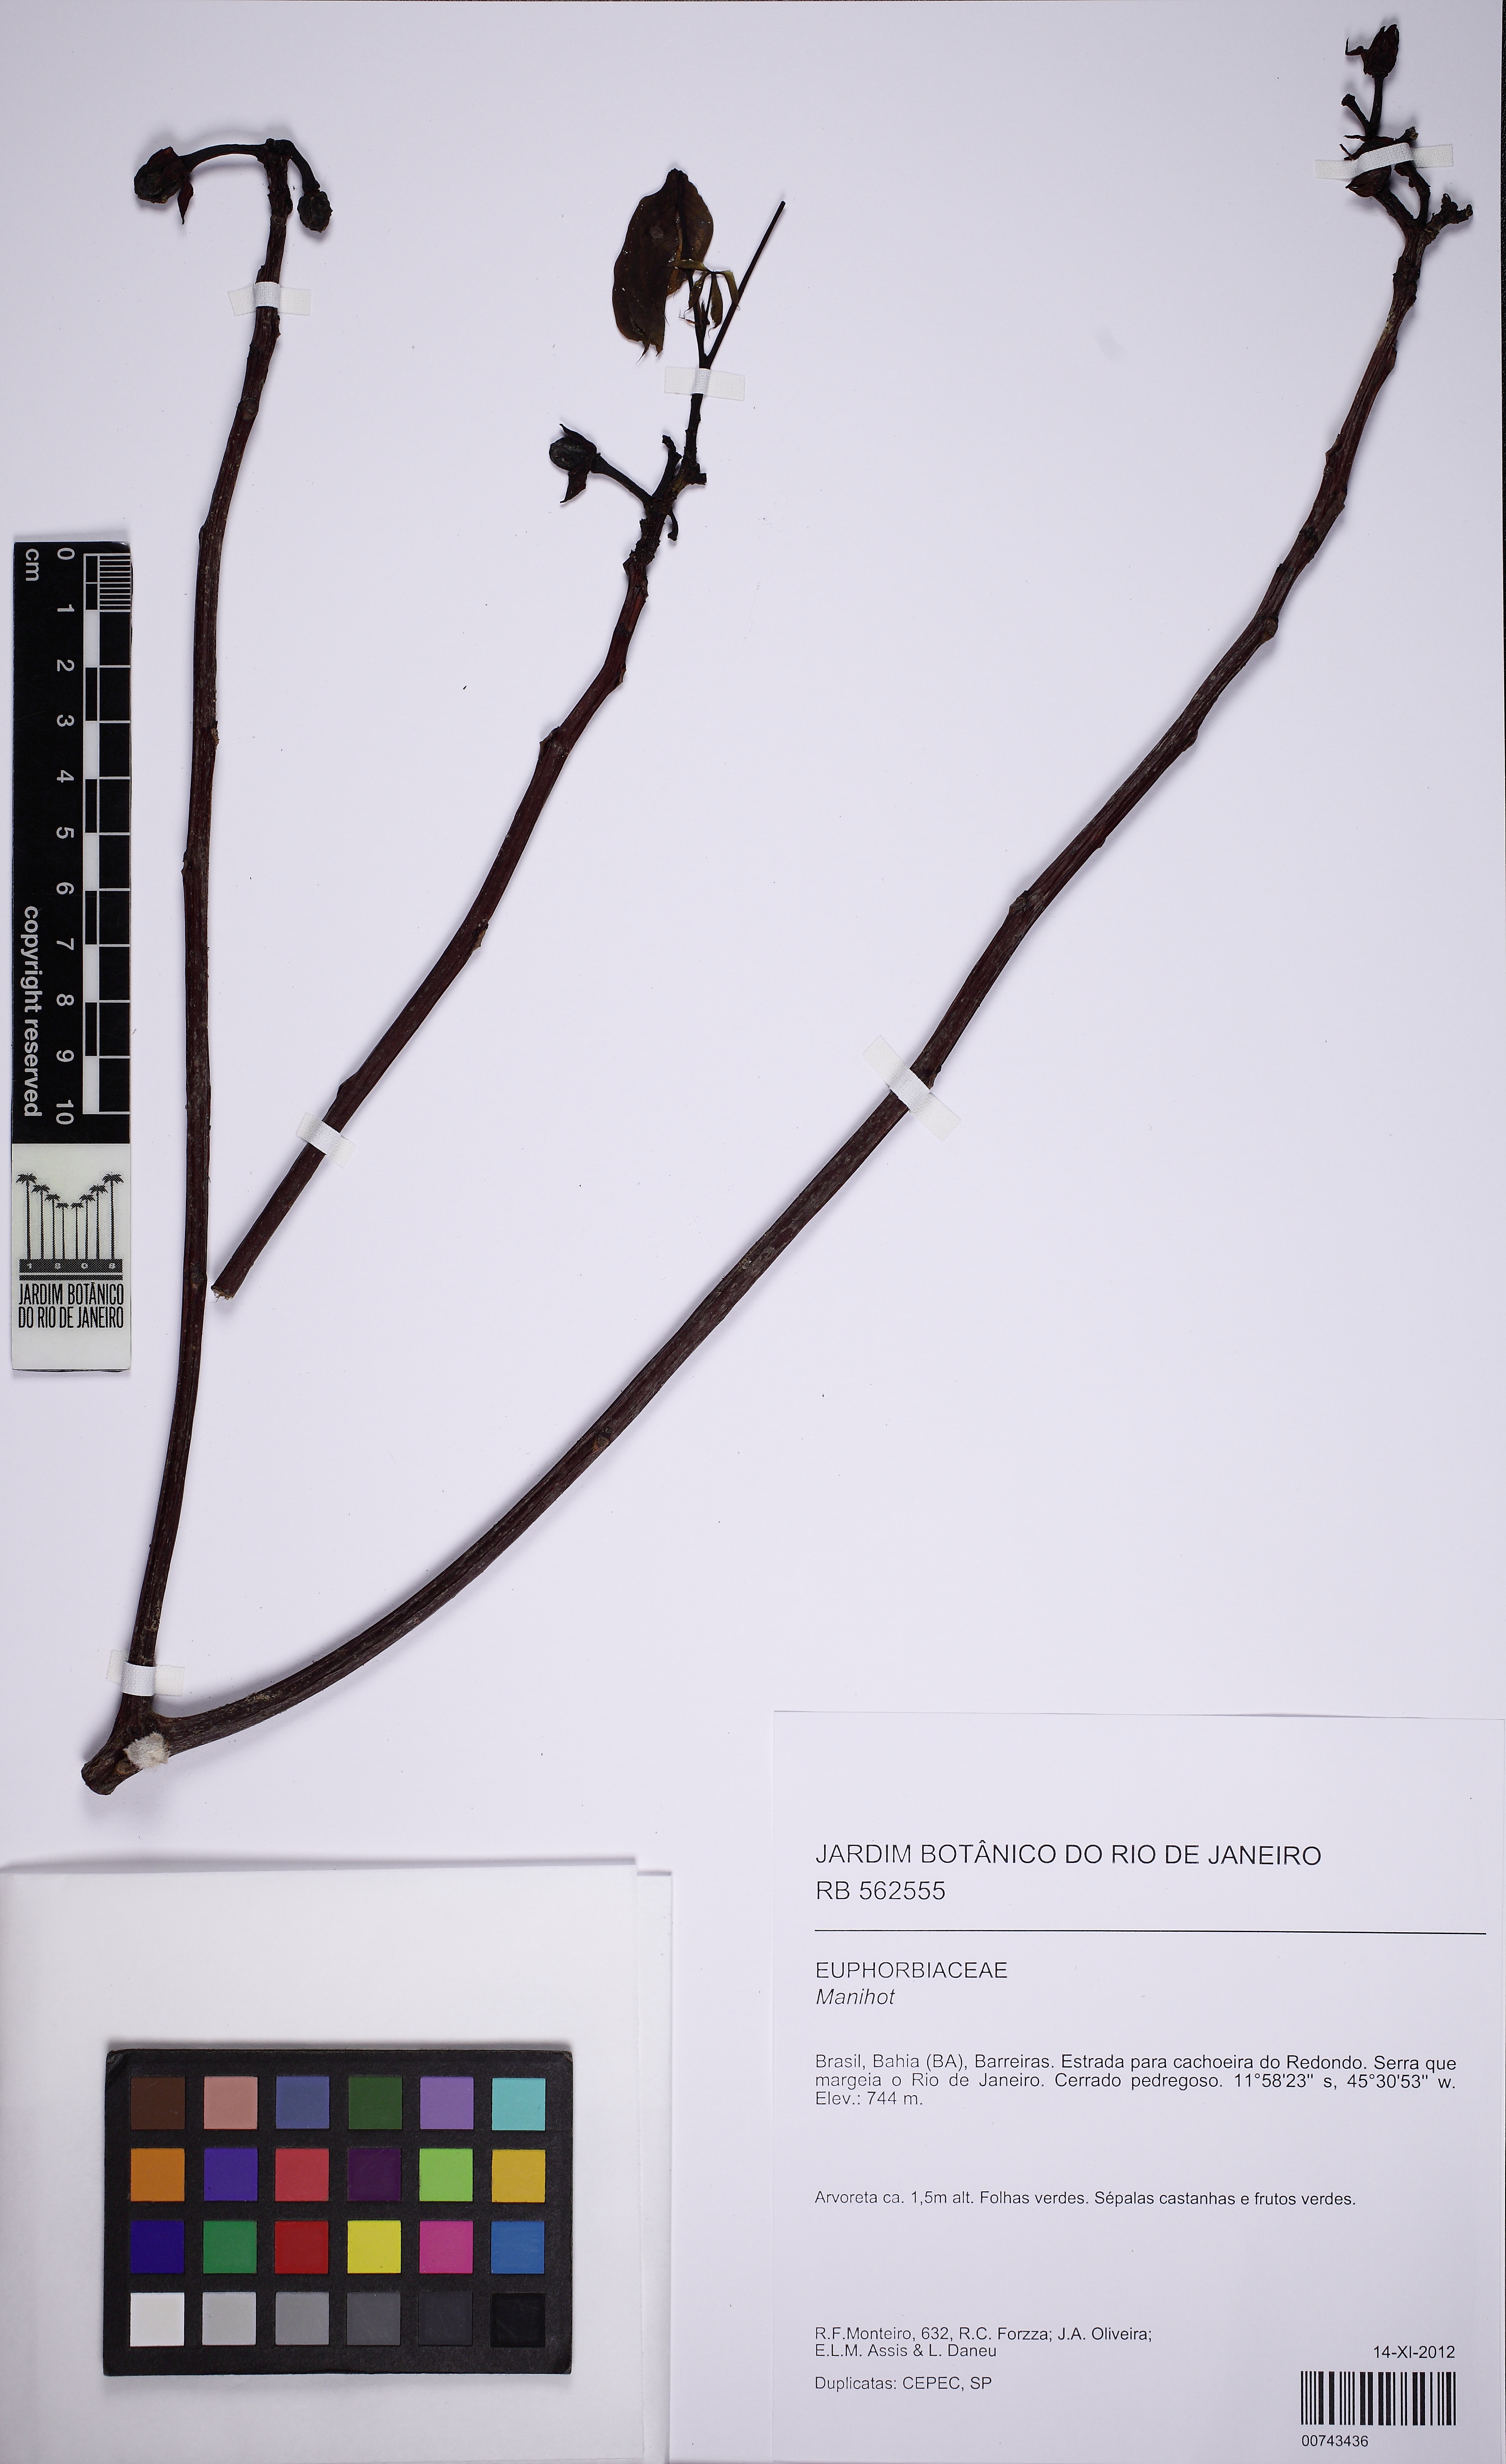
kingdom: Plantae
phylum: Tracheophyta
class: Magnoliopsida
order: Malpighiales
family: Euphorbiaceae
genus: Manihot
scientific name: Manihot
